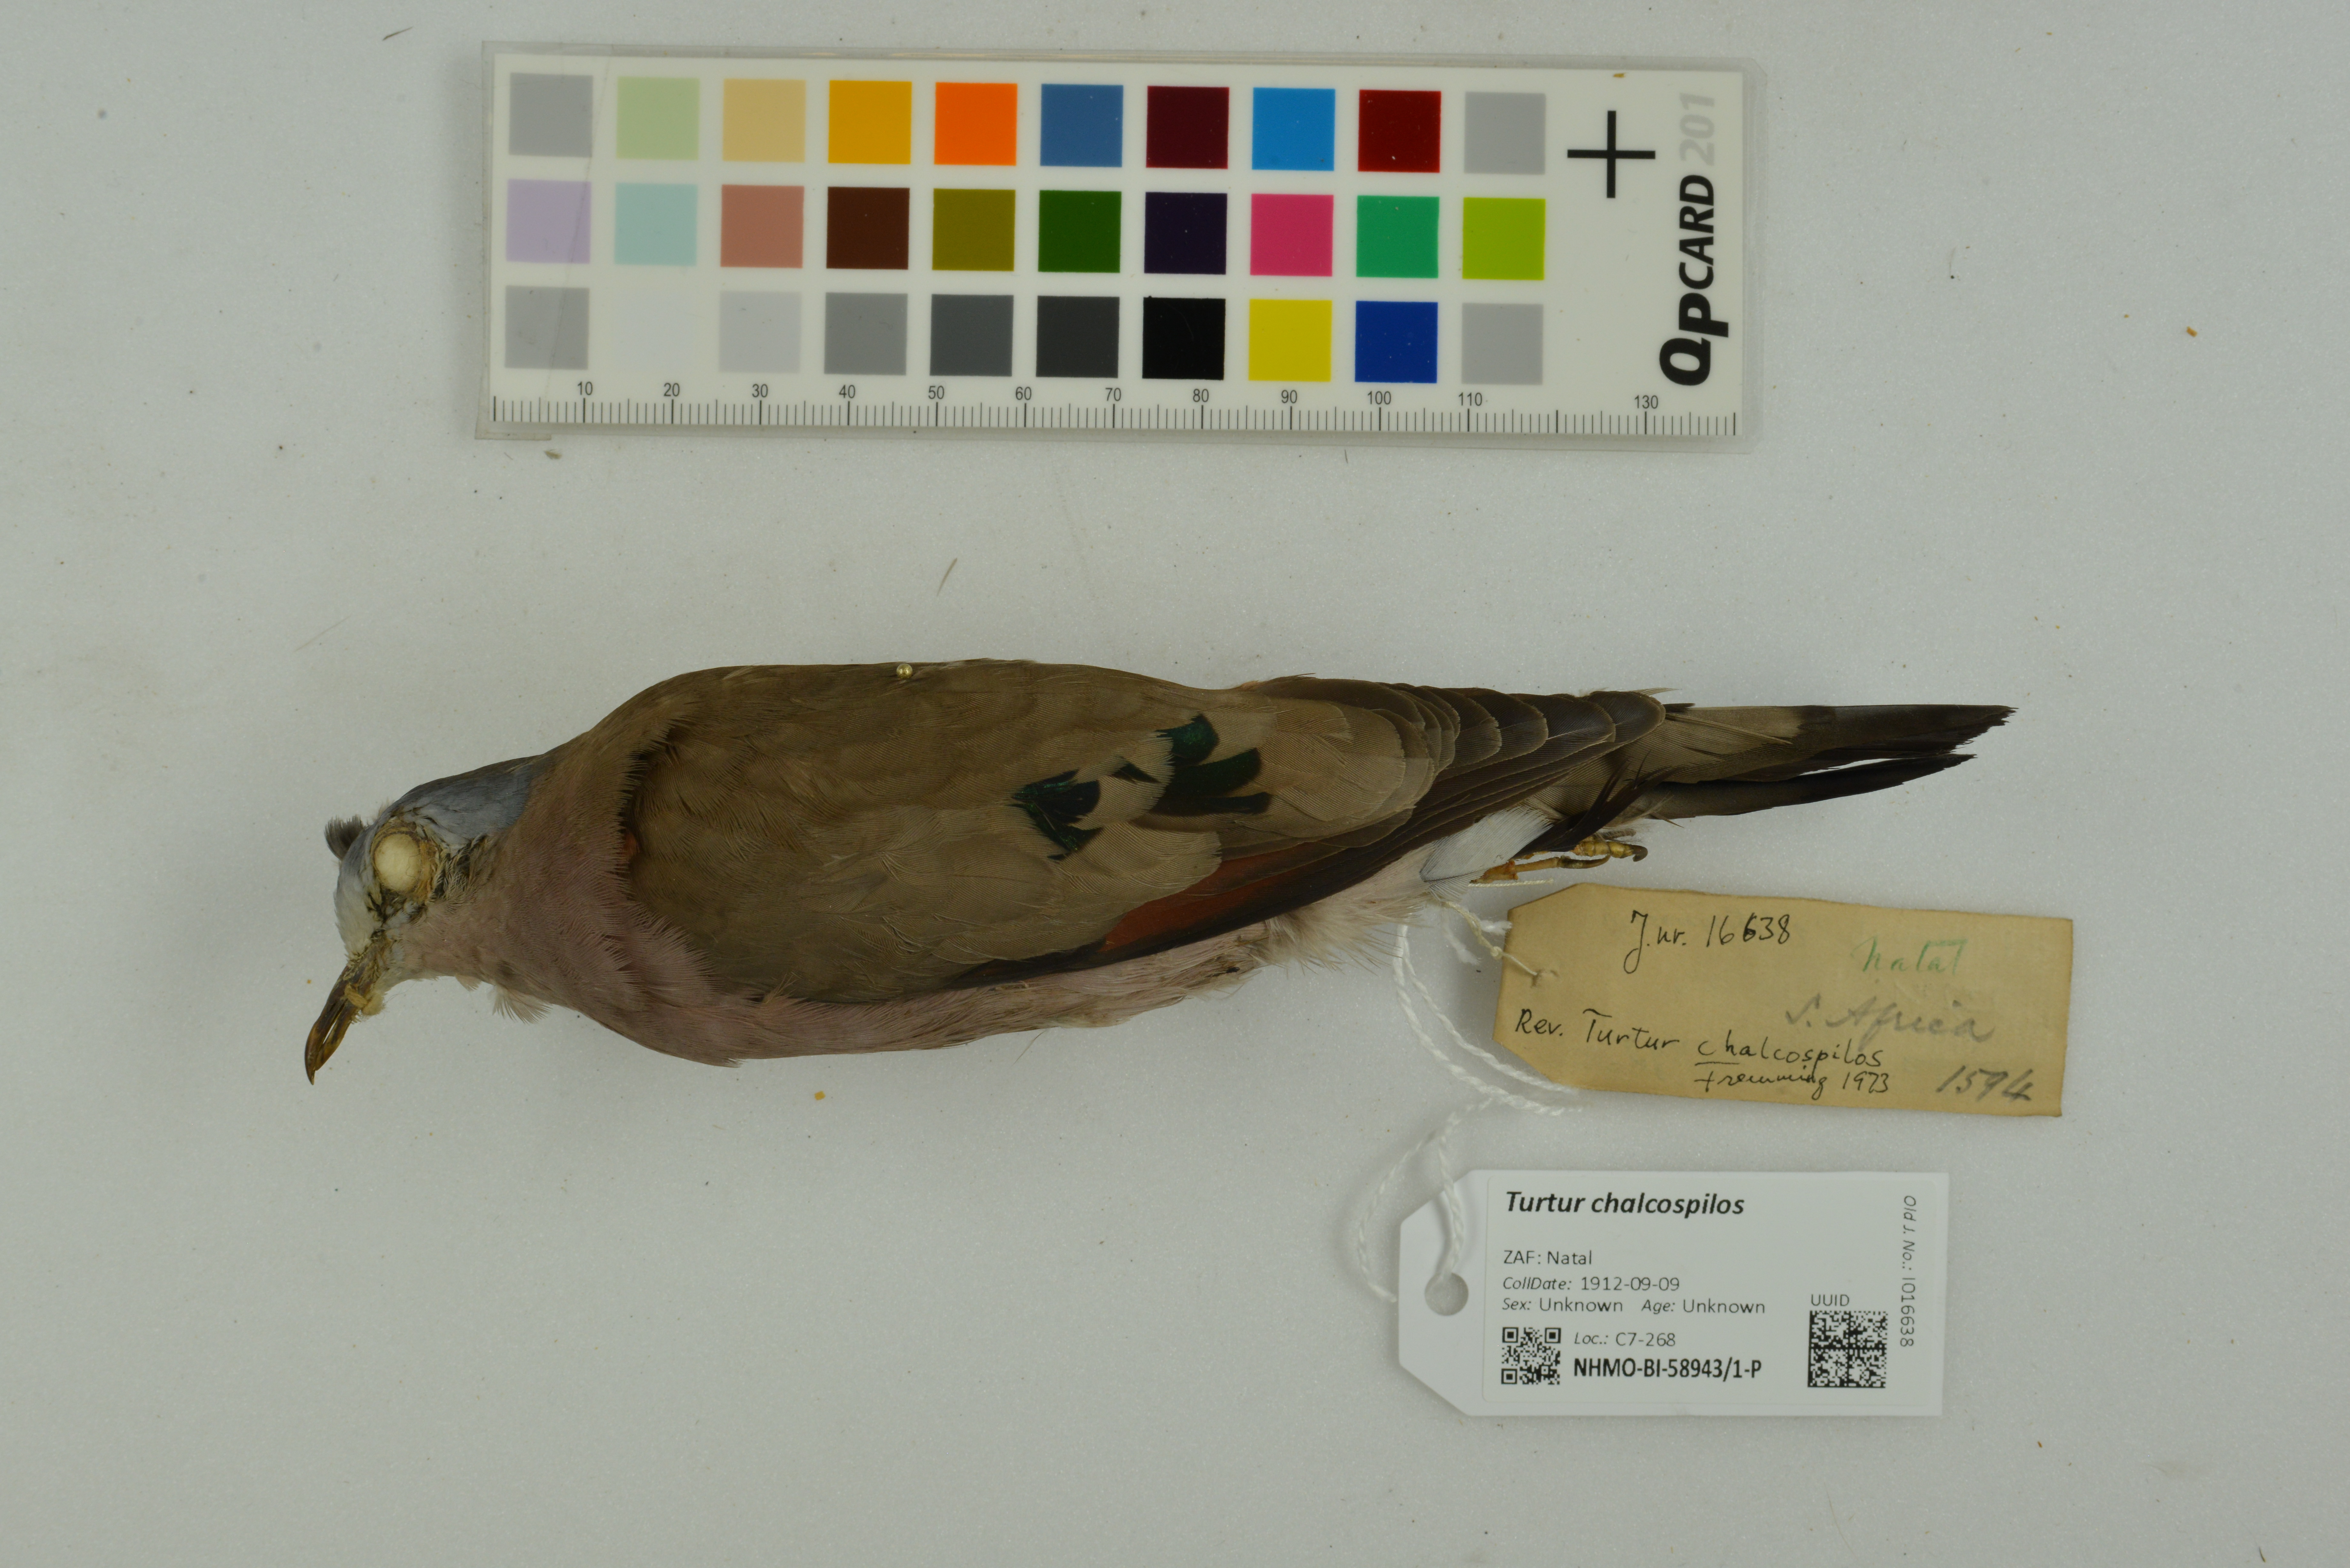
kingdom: Animalia
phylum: Chordata
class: Aves
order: Columbiformes
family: Columbidae
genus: Turtur
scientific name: Turtur chalcospilos
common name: Emerald-spotted wood dove
